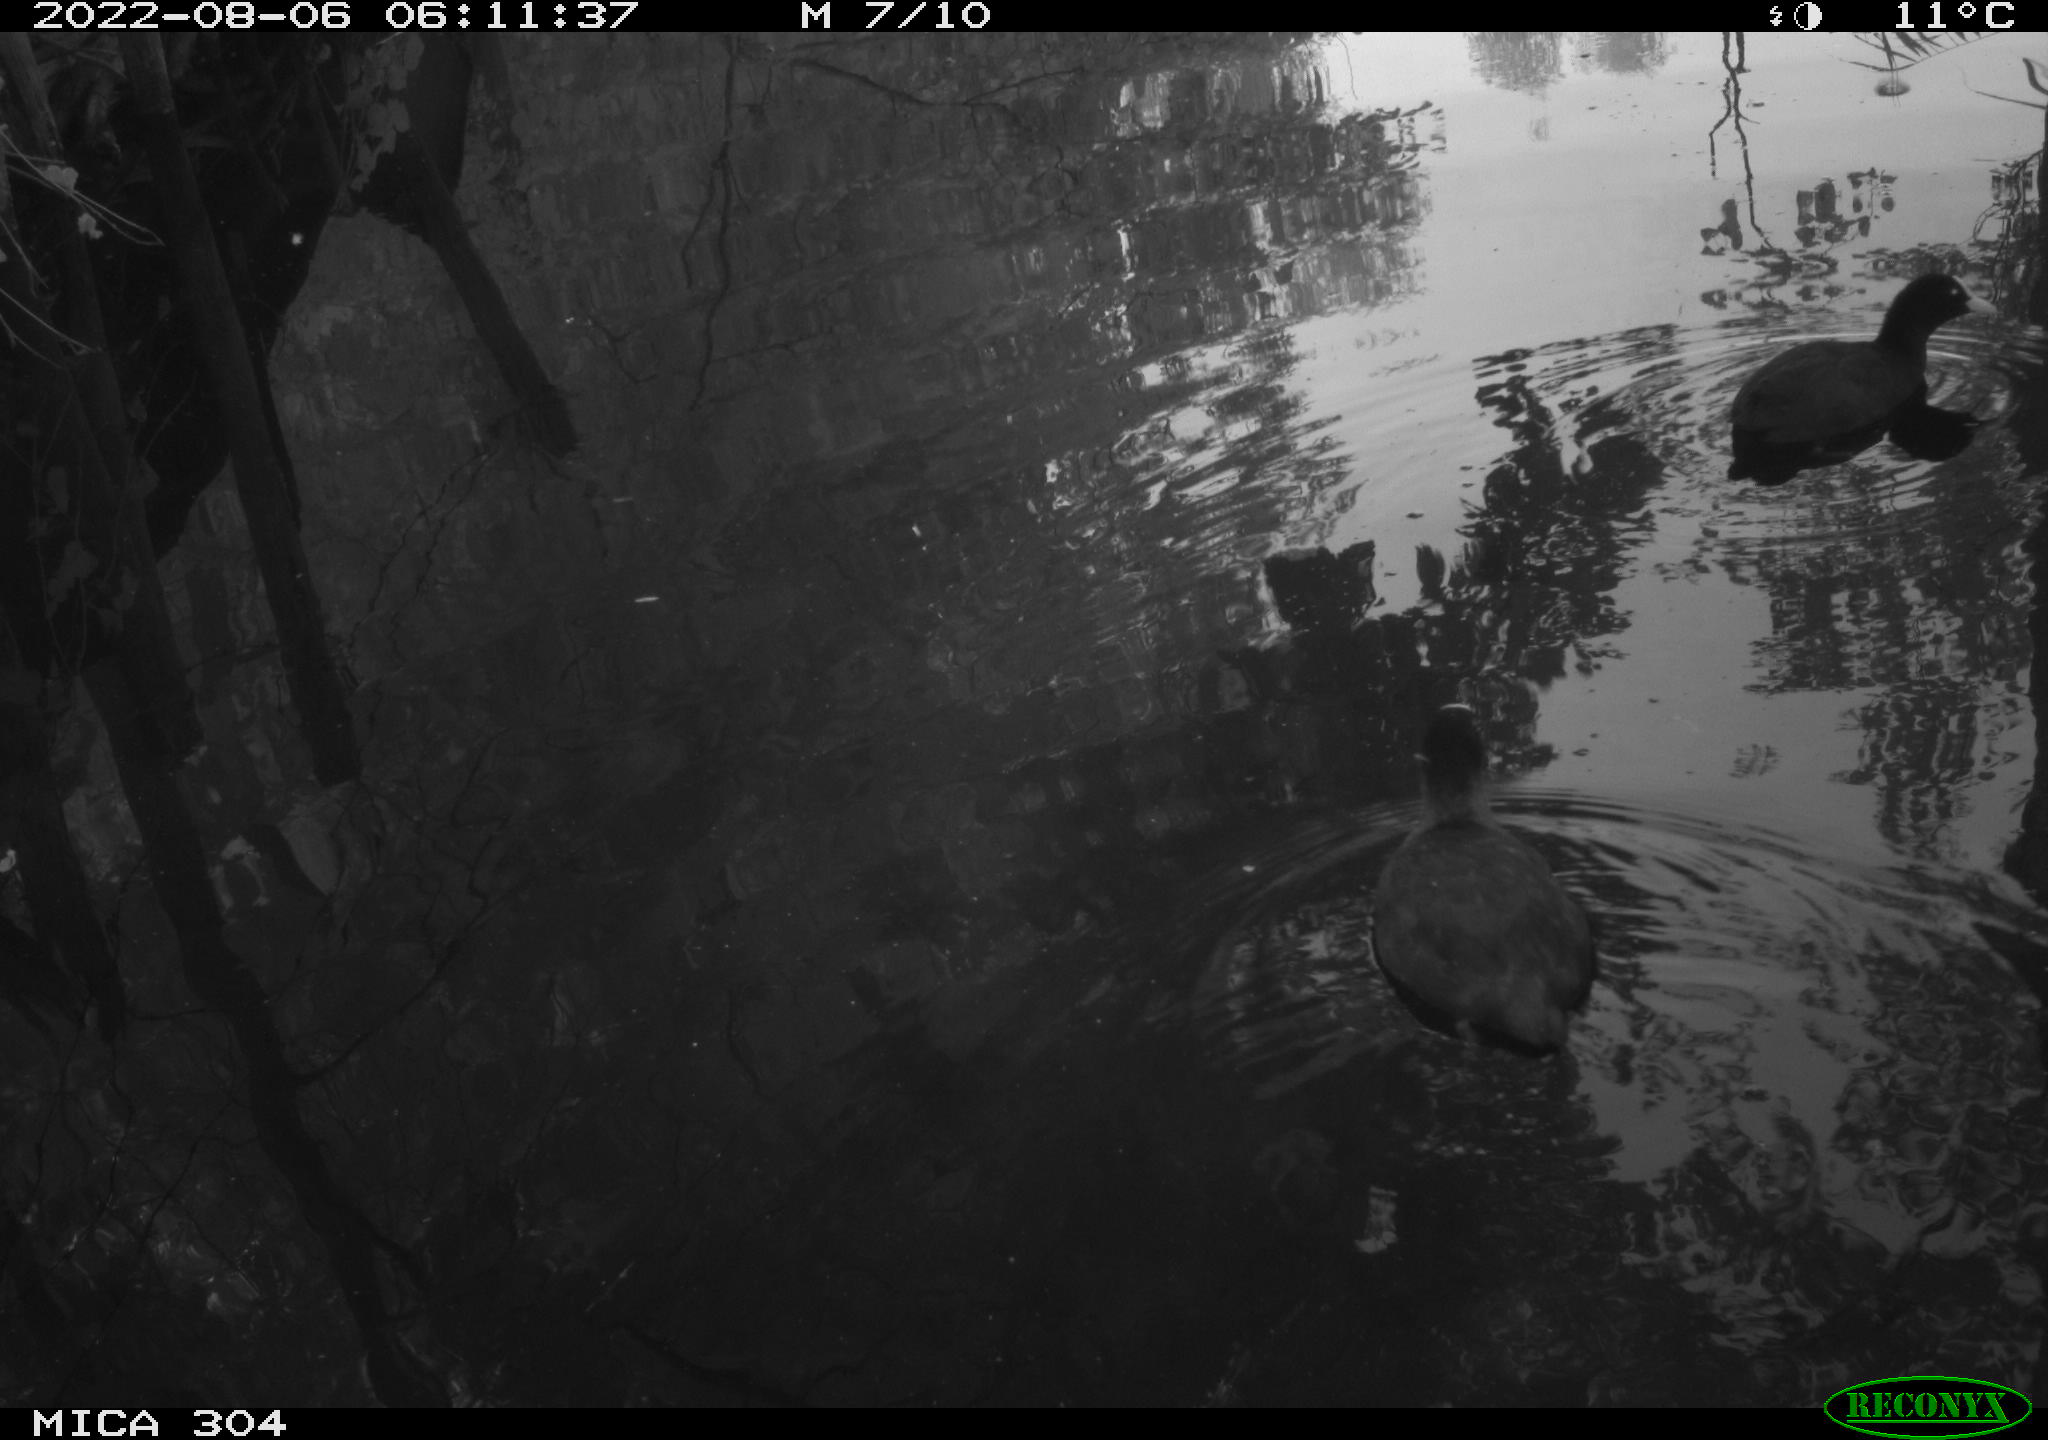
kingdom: Animalia
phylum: Chordata
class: Aves
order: Gruiformes
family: Rallidae
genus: Fulica
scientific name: Fulica atra
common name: Eurasian coot
